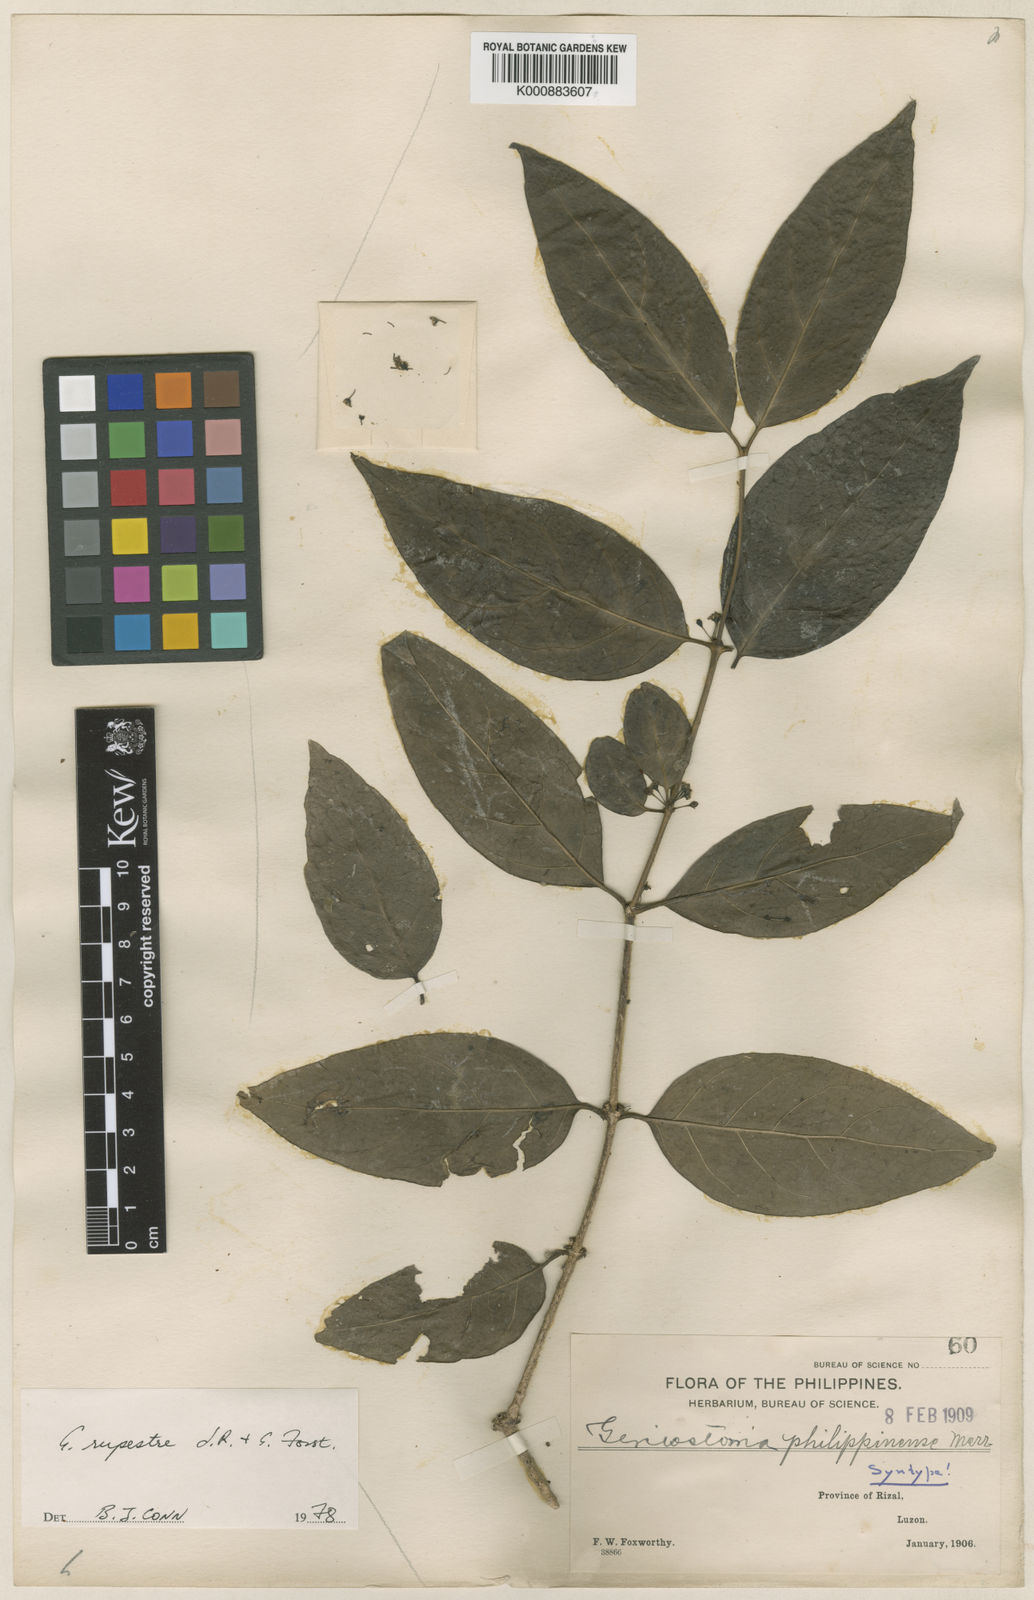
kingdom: Plantae
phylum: Tracheophyta
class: Magnoliopsida
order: Gentianales
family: Loganiaceae
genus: Geniostoma
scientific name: Geniostoma rupestre
